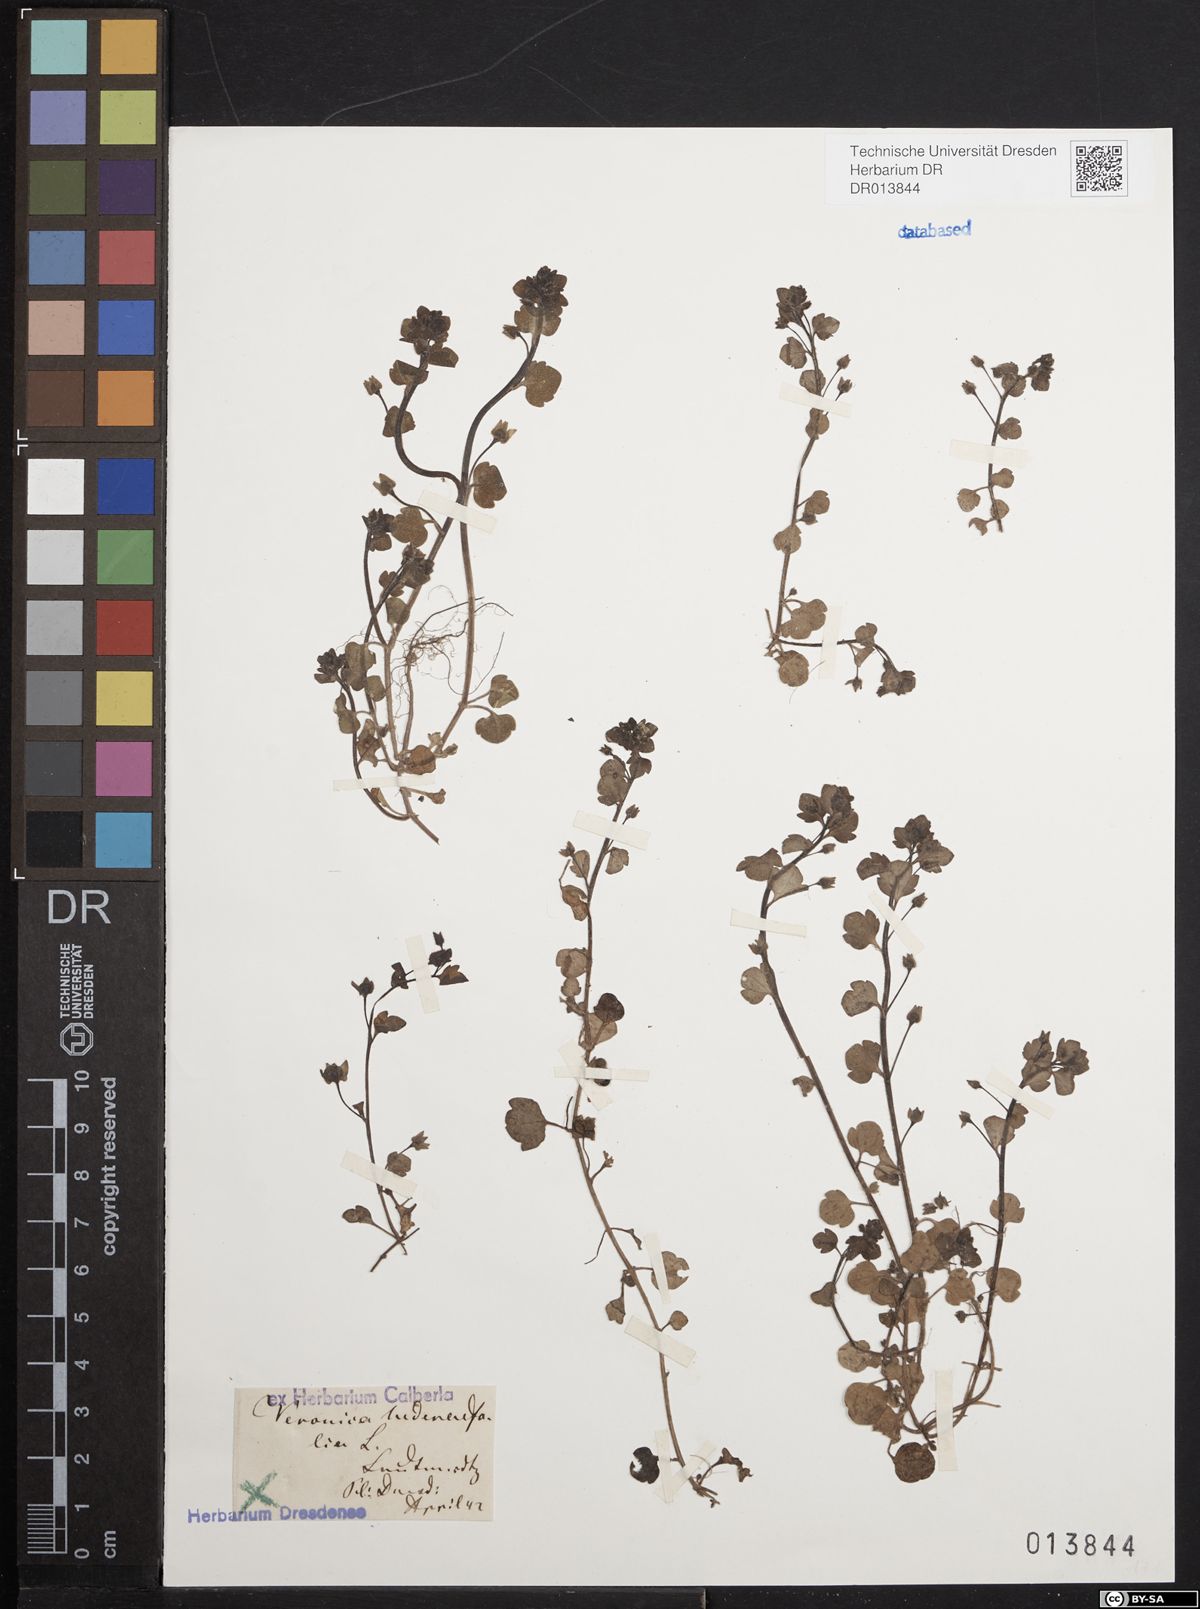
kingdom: Plantae
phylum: Tracheophyta
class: Magnoliopsida
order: Lamiales
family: Plantaginaceae
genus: Veronica
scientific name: Veronica hederifolia
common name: Ivy-leaved speedwell
